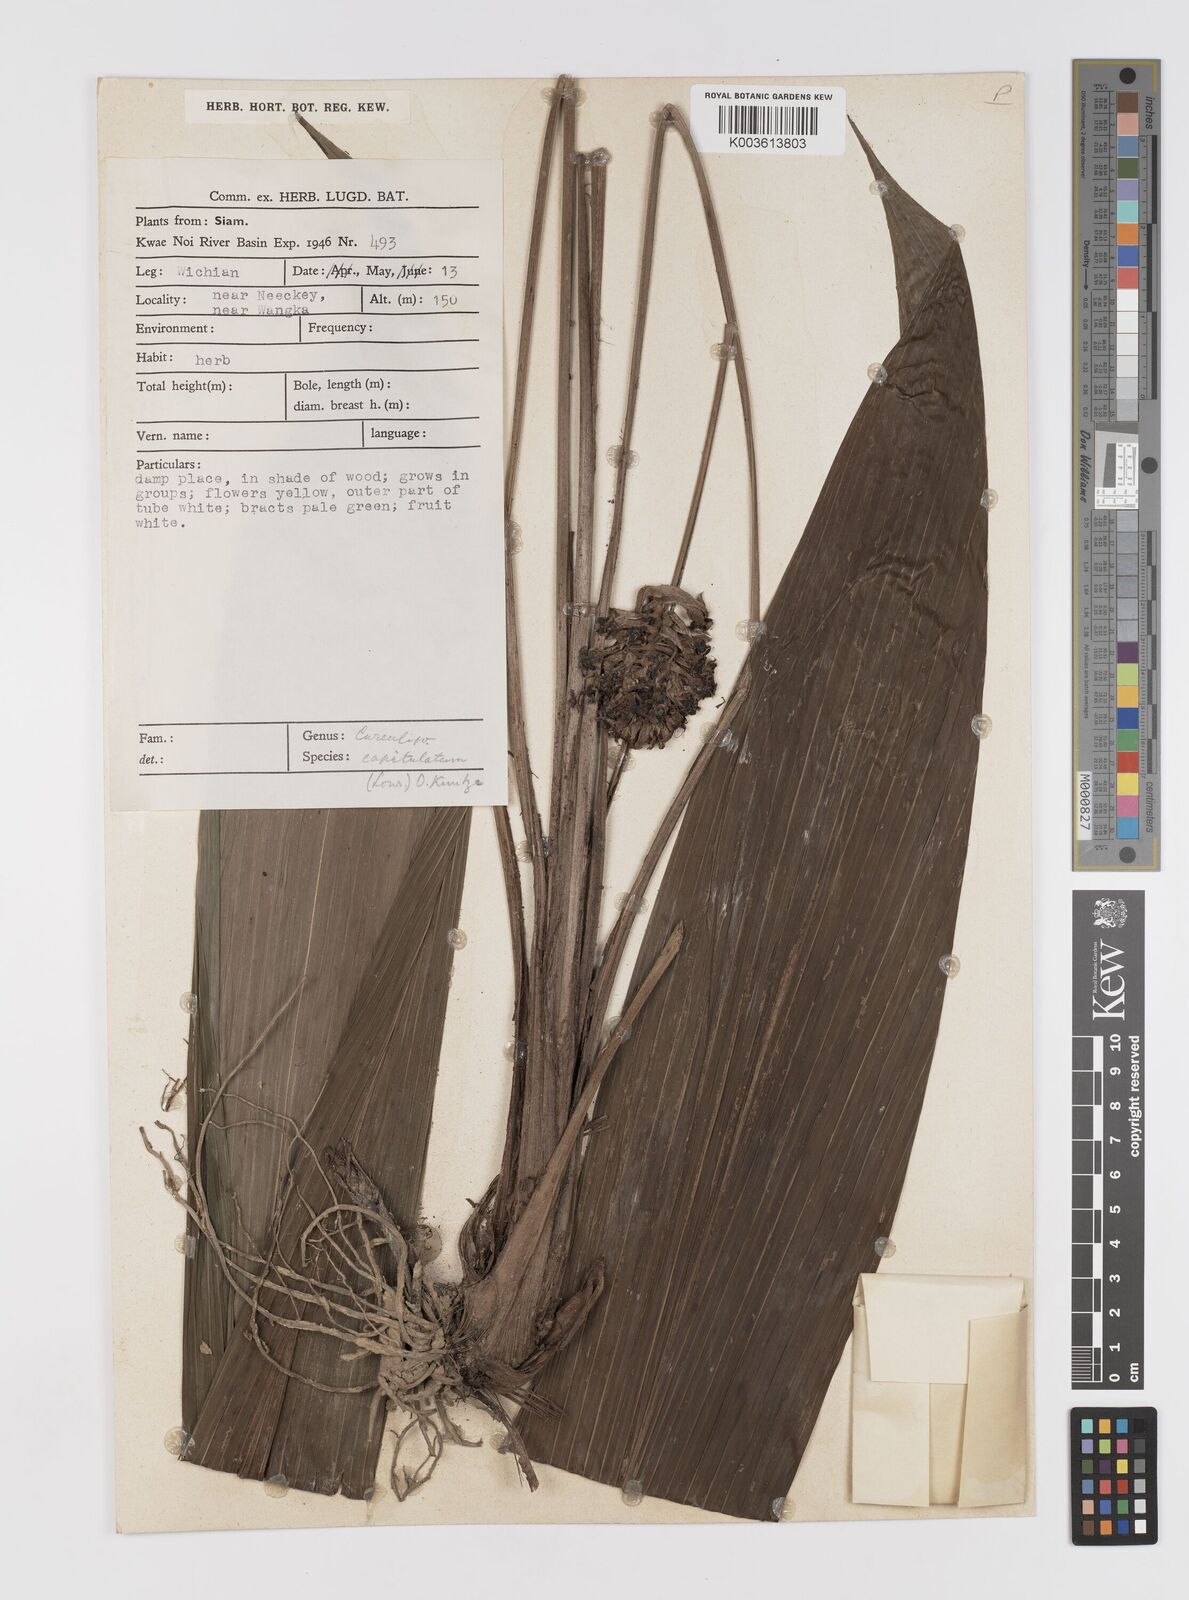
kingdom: Plantae
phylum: Tracheophyta
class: Liliopsida
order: Asparagales
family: Hypoxidaceae
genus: Curculigo
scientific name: Curculigo capitulata
